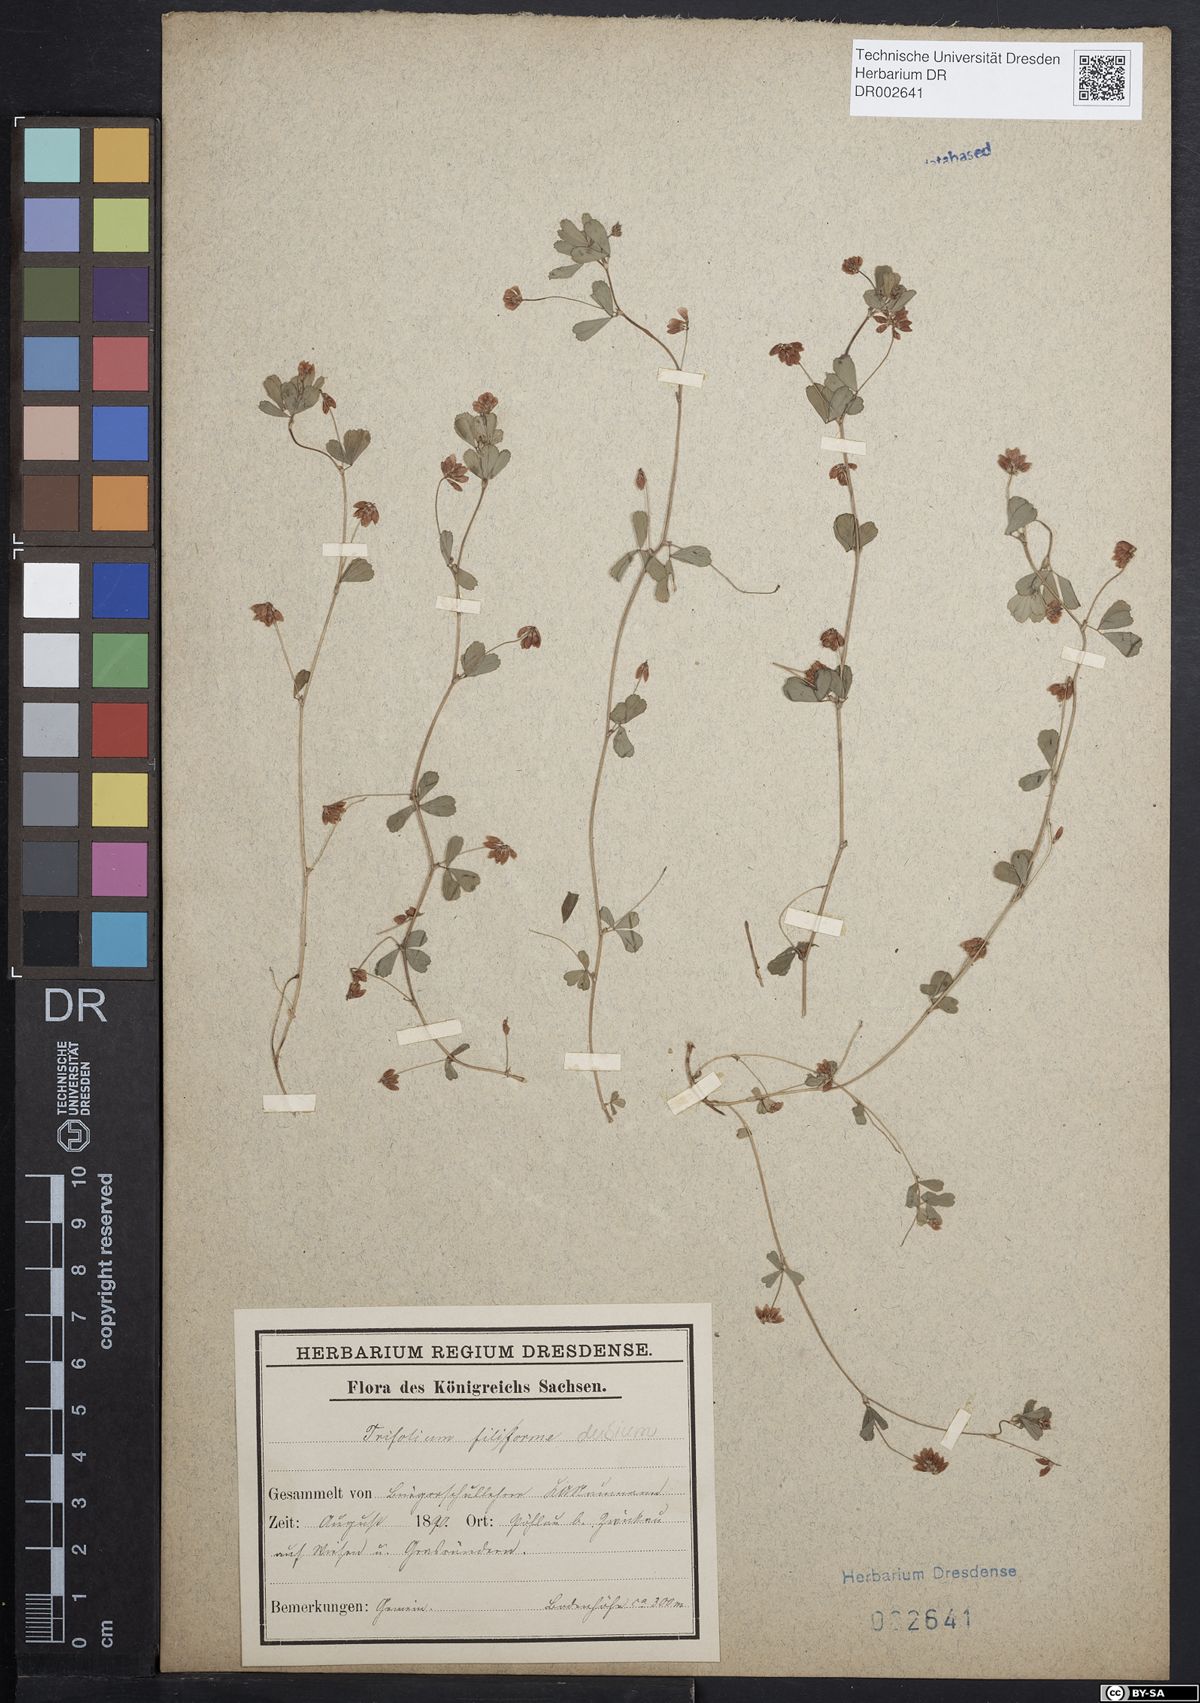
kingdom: Plantae
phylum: Tracheophyta
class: Magnoliopsida
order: Fabales
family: Fabaceae
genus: Trifolium
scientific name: Trifolium dubium
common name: Suckling clover
